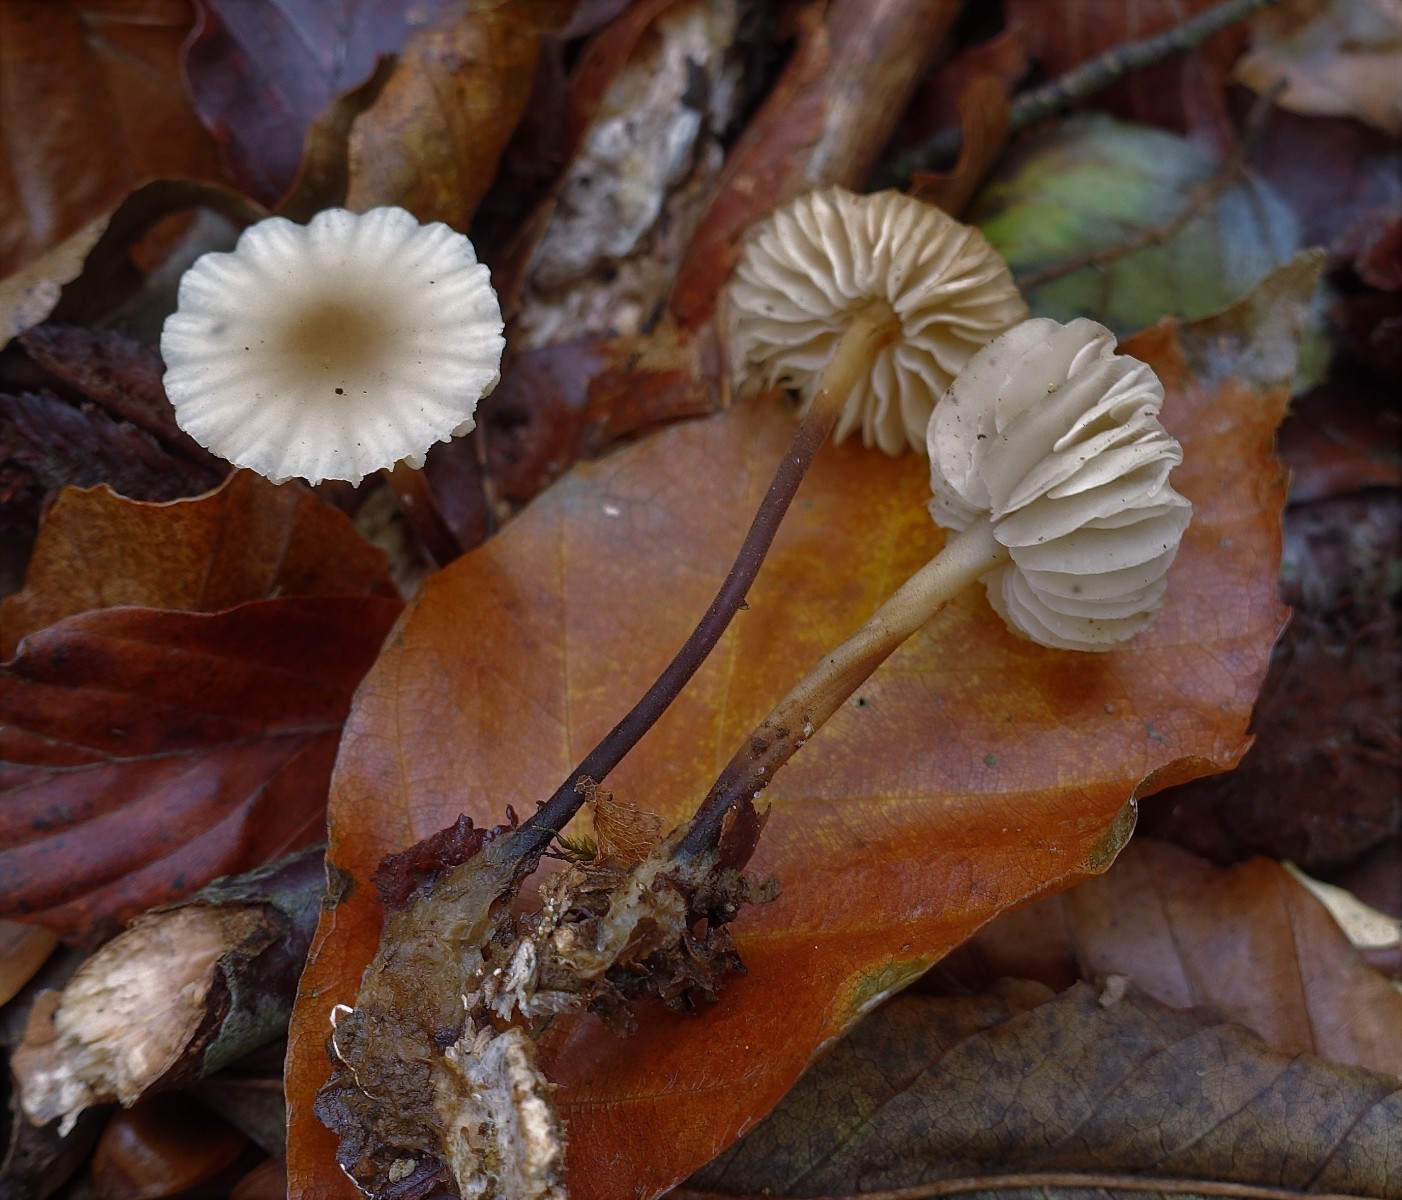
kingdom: Fungi
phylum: Basidiomycota
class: Agaricomycetes
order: Agaricales
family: Marasmiaceae
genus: Marasmius
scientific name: Marasmius torquescens
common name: filtfodet bruskhat
